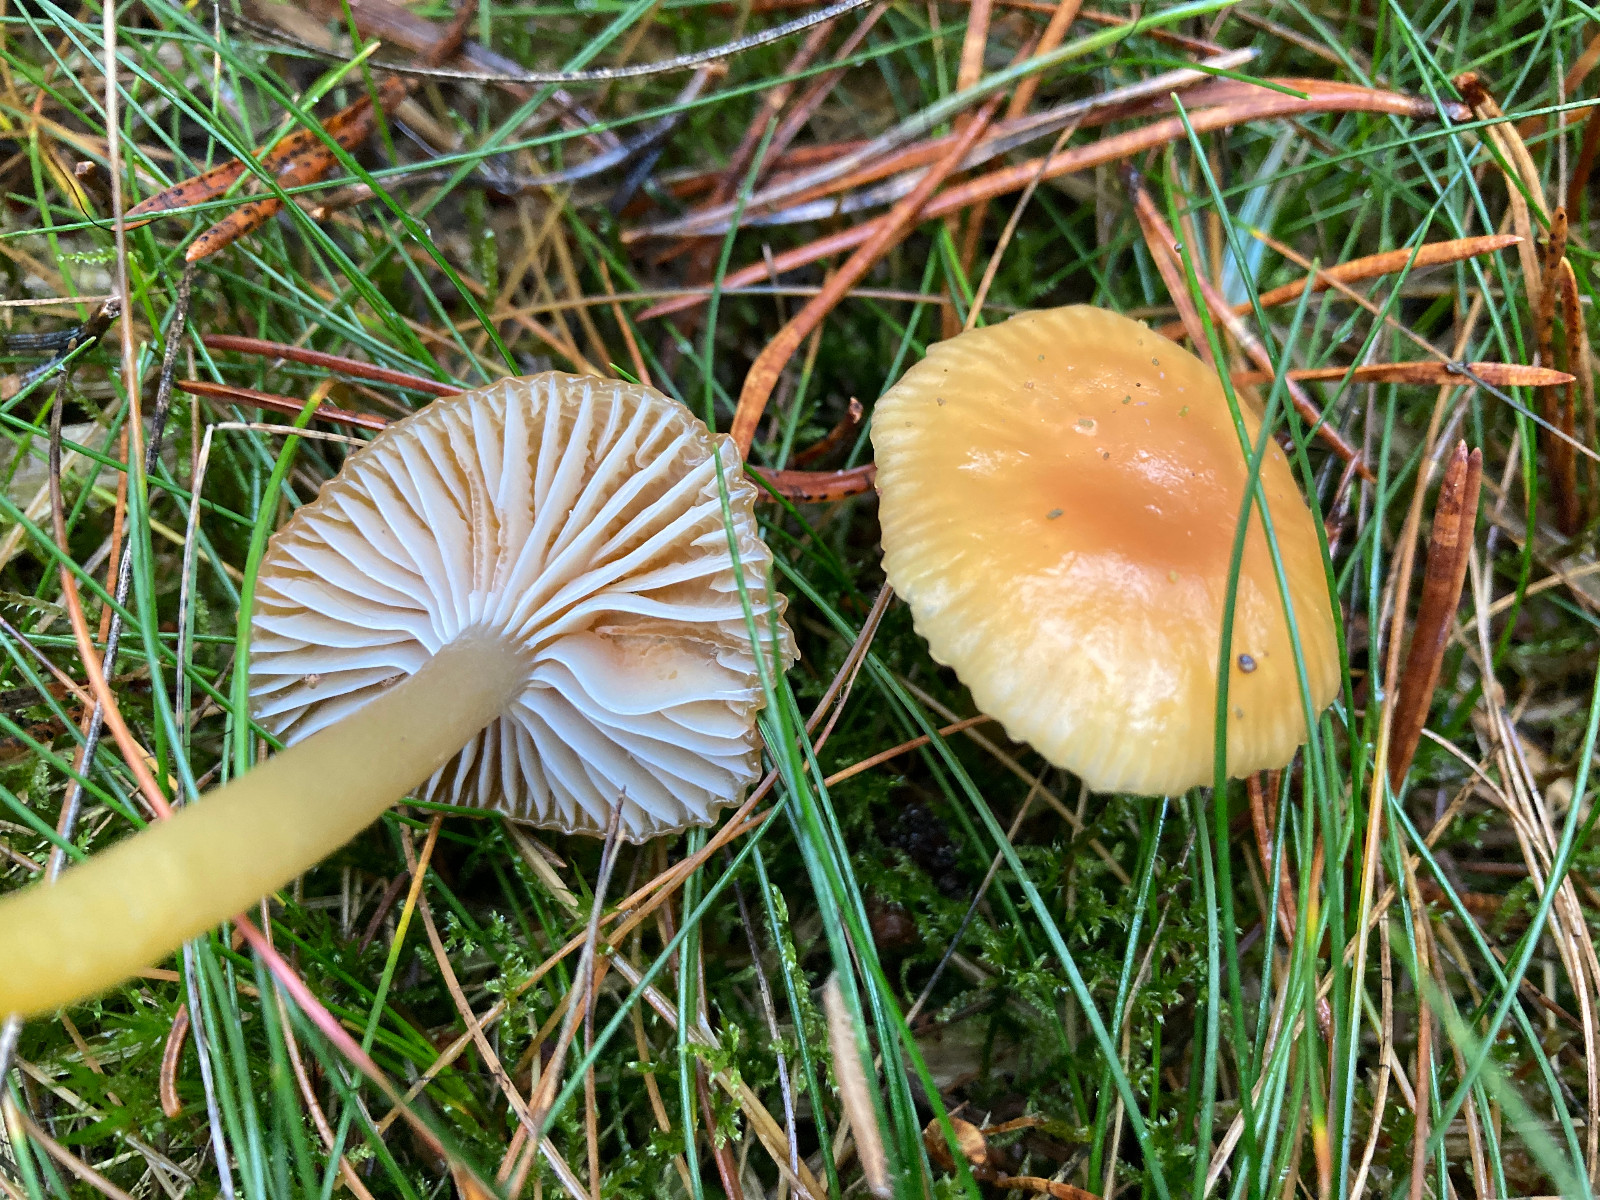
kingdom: Fungi
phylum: Basidiomycota
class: Agaricomycetes
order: Agaricales
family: Hygrophoraceae
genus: Gliophorus
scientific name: Gliophorus laetus
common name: brusk-vokshat
